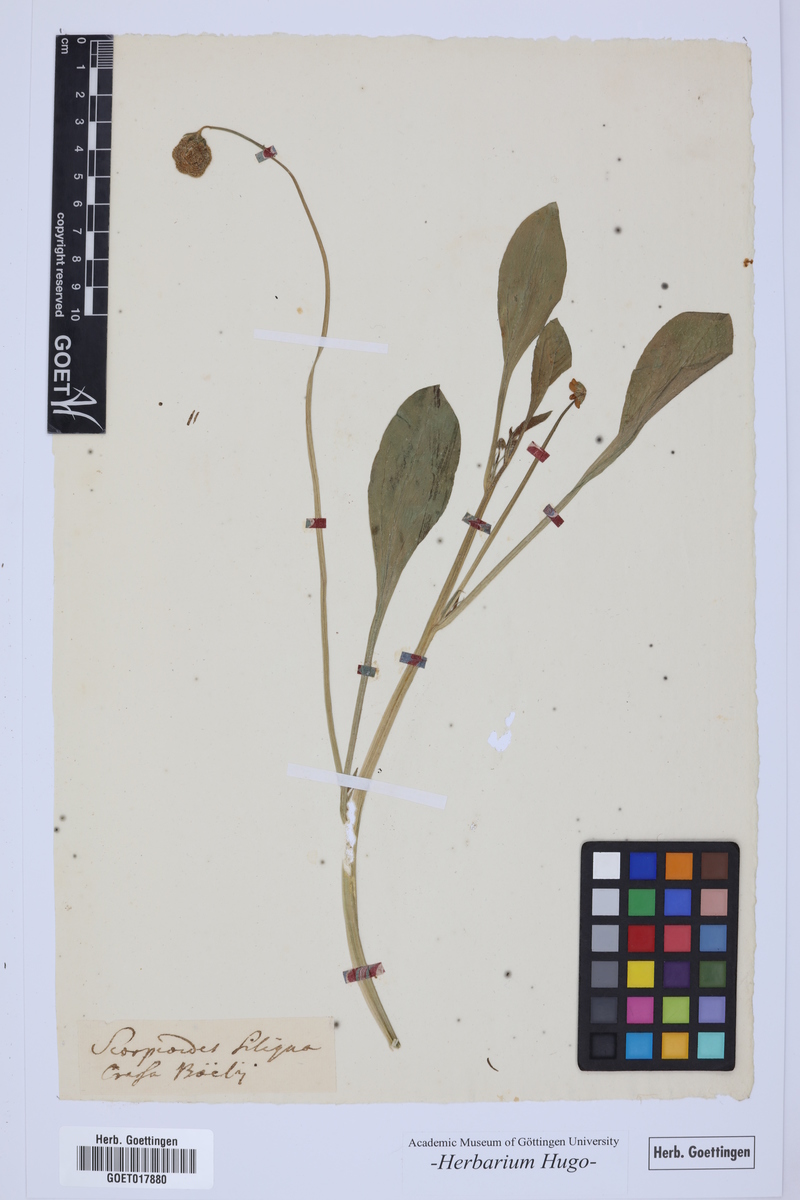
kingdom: Plantae
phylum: Tracheophyta
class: Magnoliopsida
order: Fabales
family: Fabaceae
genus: Scorpiurus
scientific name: Scorpiurus vermiculatus
